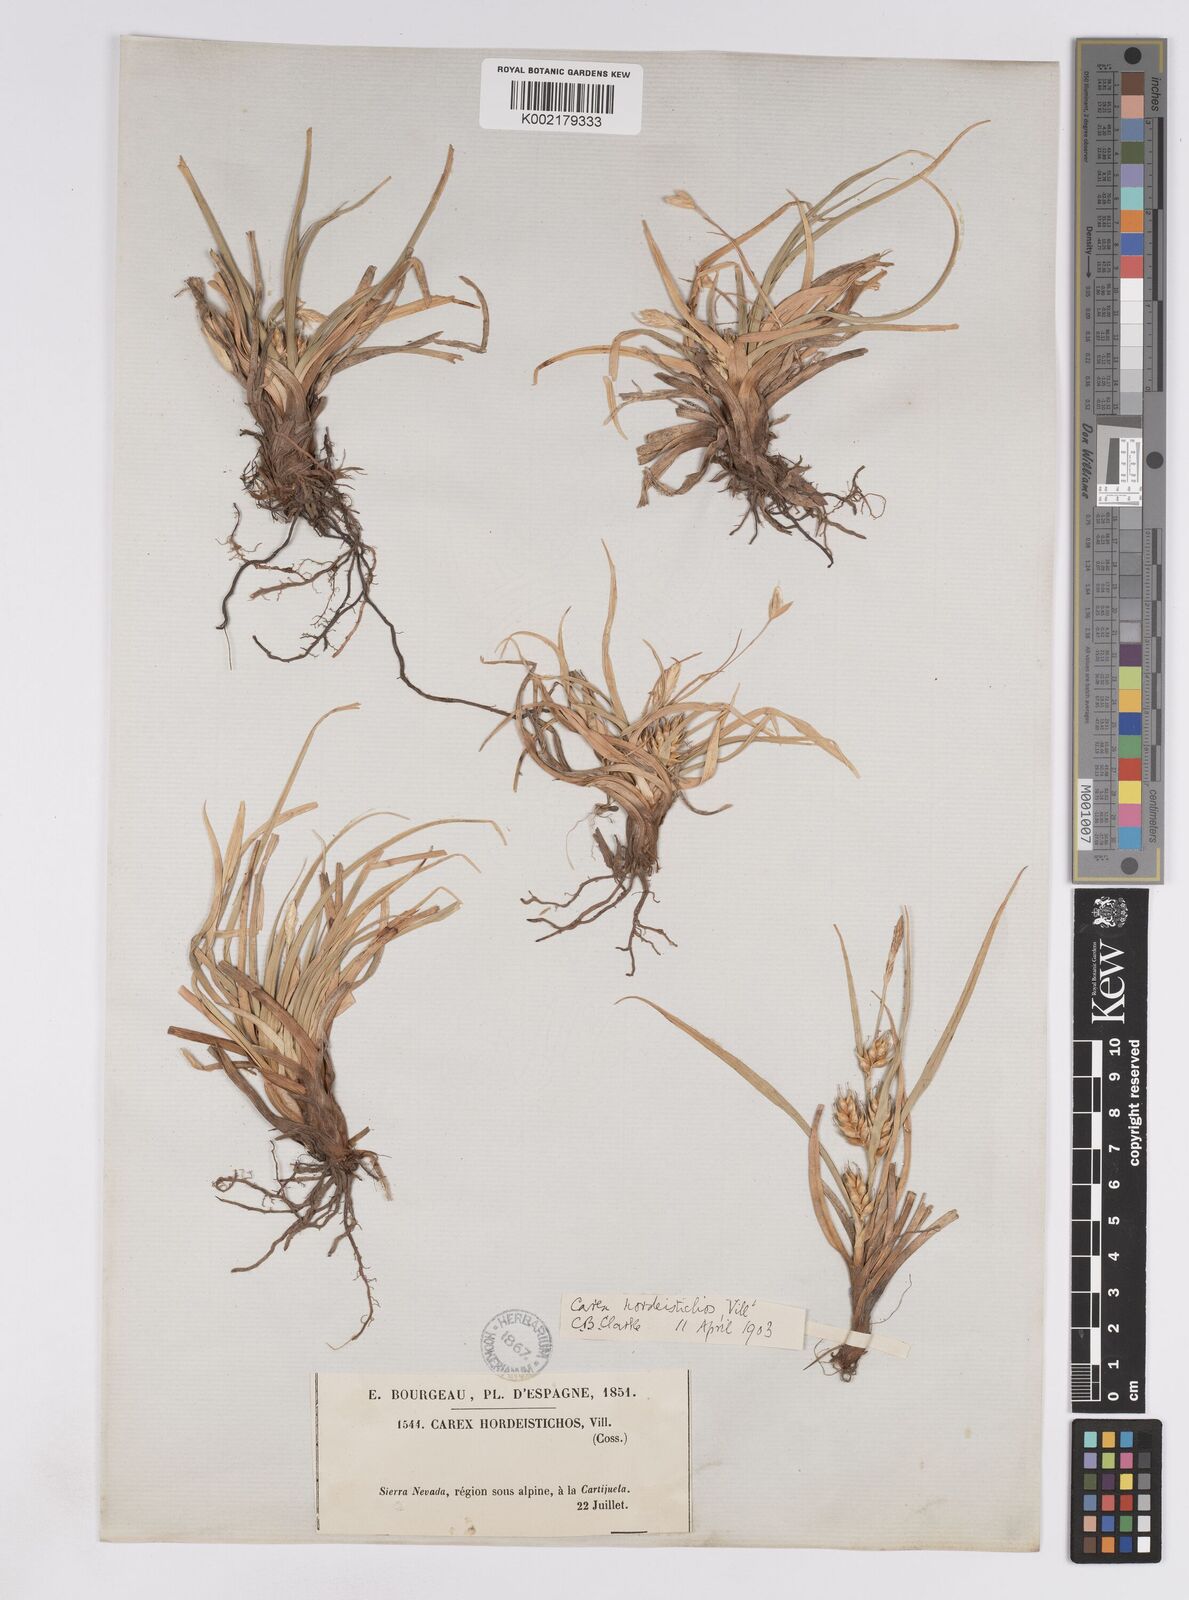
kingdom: Plantae
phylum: Tracheophyta
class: Liliopsida
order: Poales
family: Cyperaceae
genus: Carex
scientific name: Carex hordeistichos
